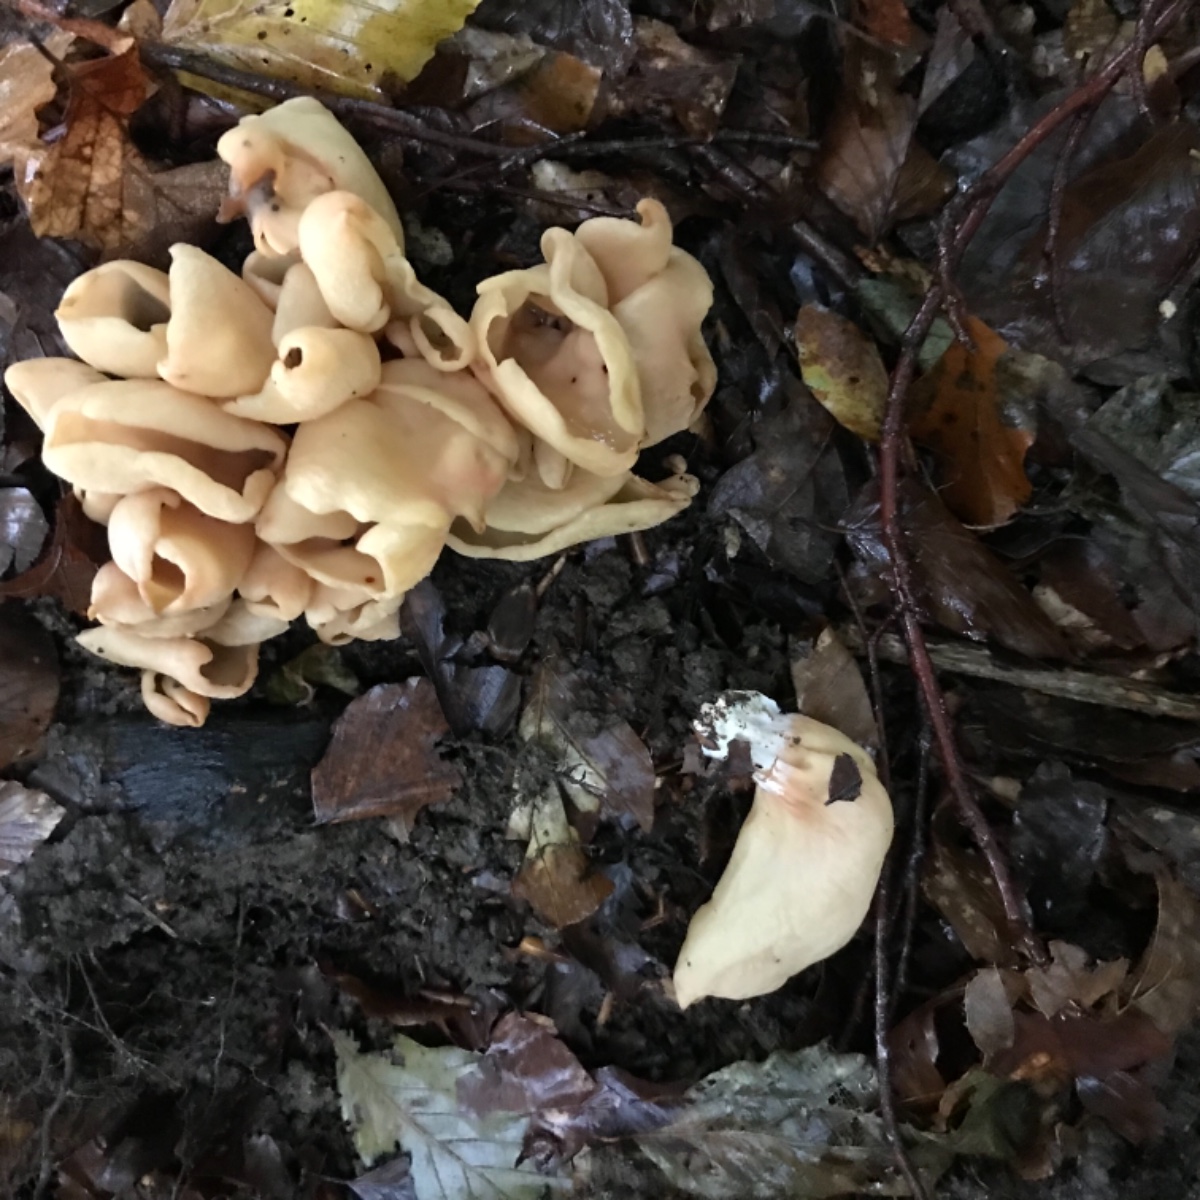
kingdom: Fungi
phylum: Ascomycota
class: Pezizomycetes
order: Pezizales
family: Otideaceae
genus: Otidea
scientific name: Otidea onotica
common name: æsel-ørebæger
